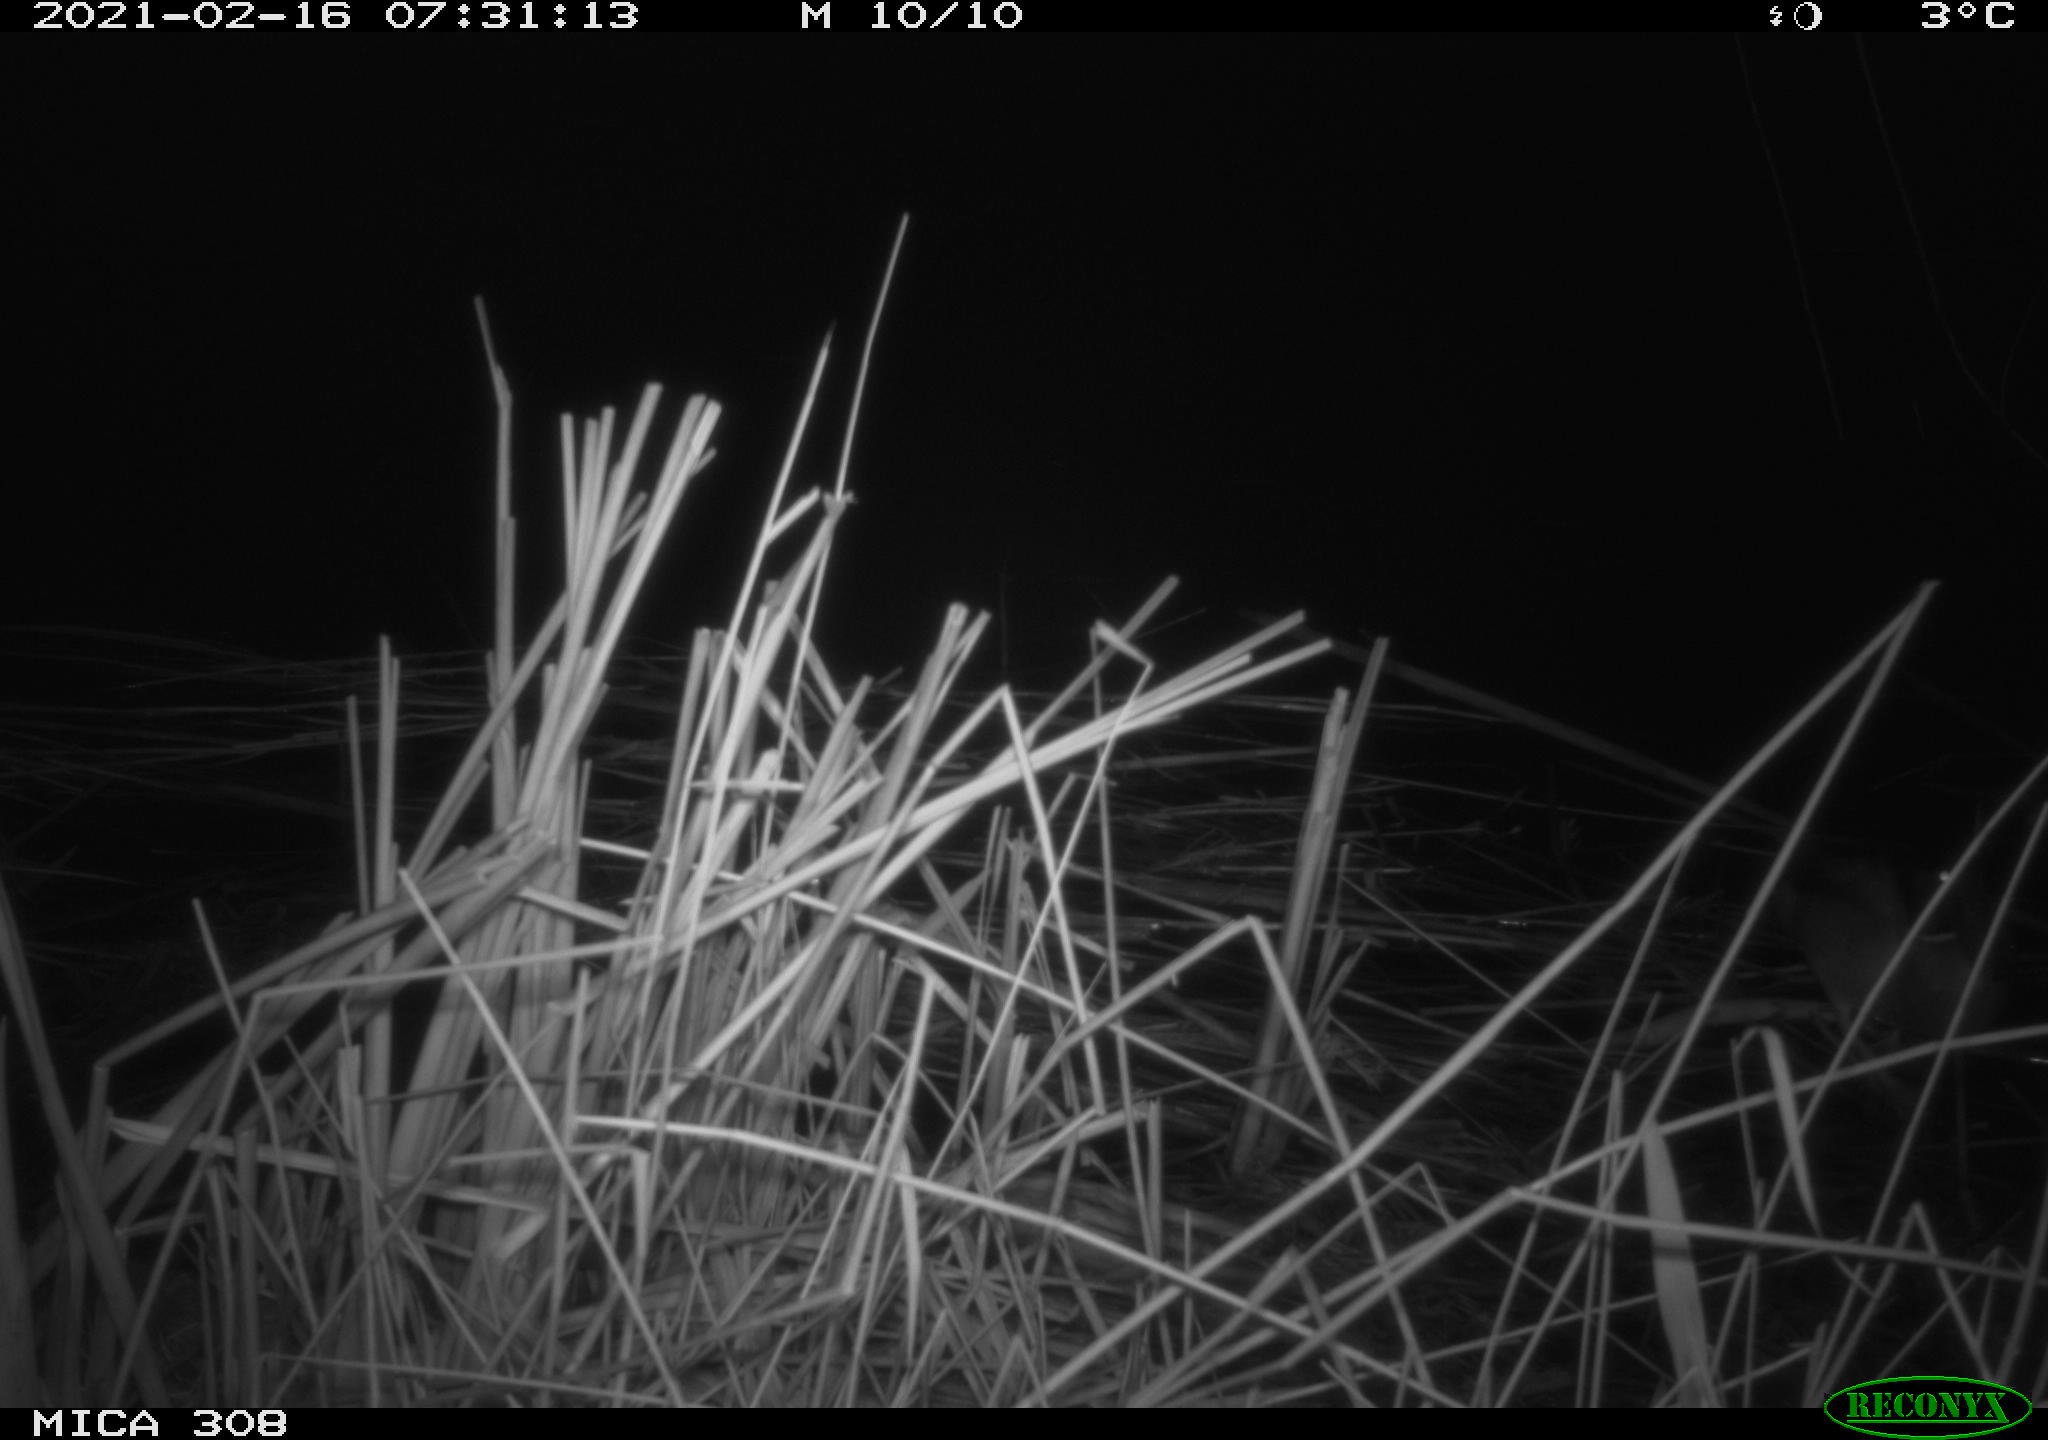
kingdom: Animalia
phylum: Chordata
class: Aves
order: Anseriformes
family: Anatidae
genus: Anas
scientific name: Anas platyrhynchos
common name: Mallard
